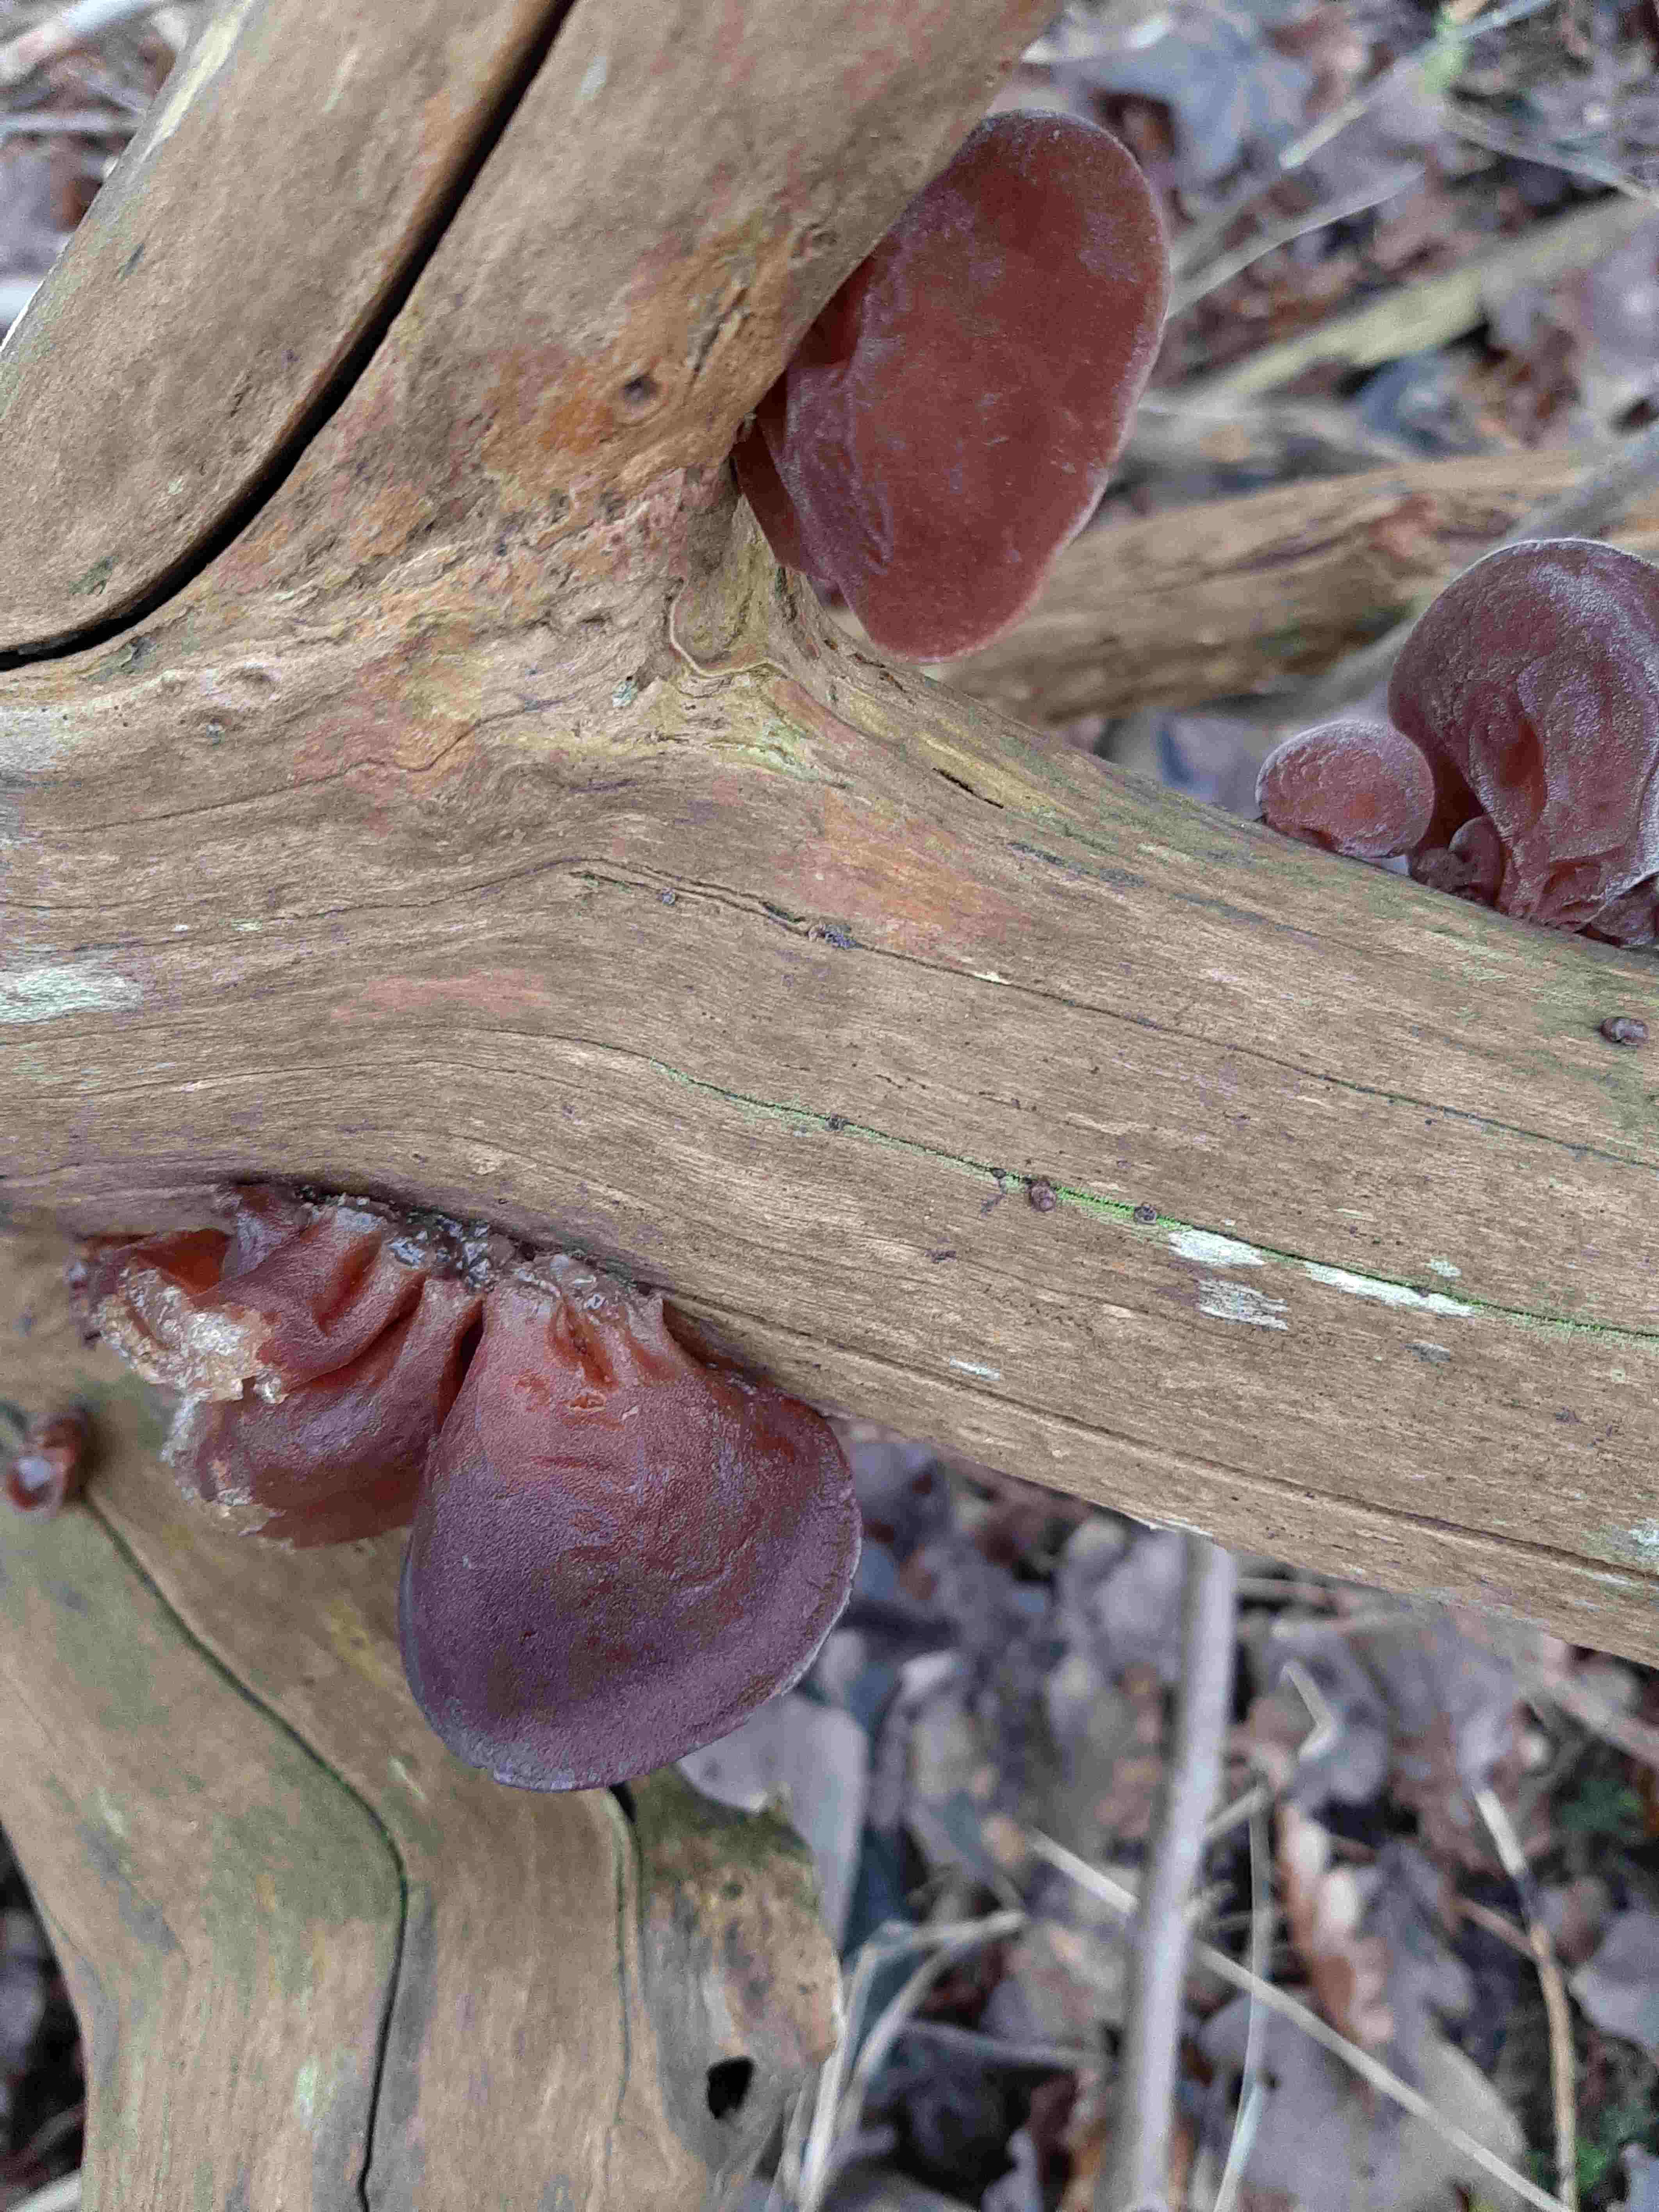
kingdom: Fungi
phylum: Basidiomycota
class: Agaricomycetes
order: Auriculariales
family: Auriculariaceae
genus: Auricularia
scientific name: Auricularia auricula-judae
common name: almindelig judasøre
